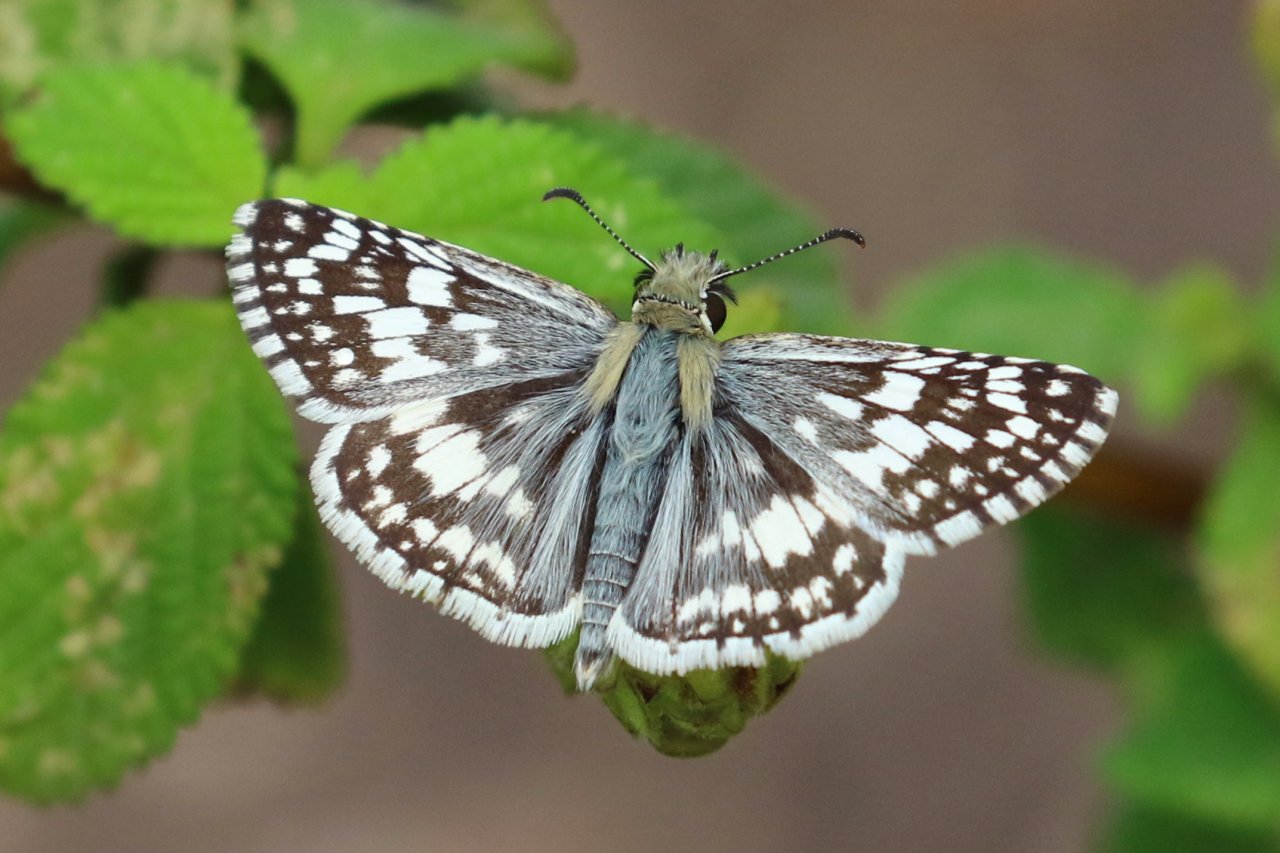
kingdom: Animalia
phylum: Arthropoda
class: Insecta
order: Lepidoptera
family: Hesperiidae
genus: Pyrgus
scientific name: Pyrgus communis
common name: White Checkered-Skipper
